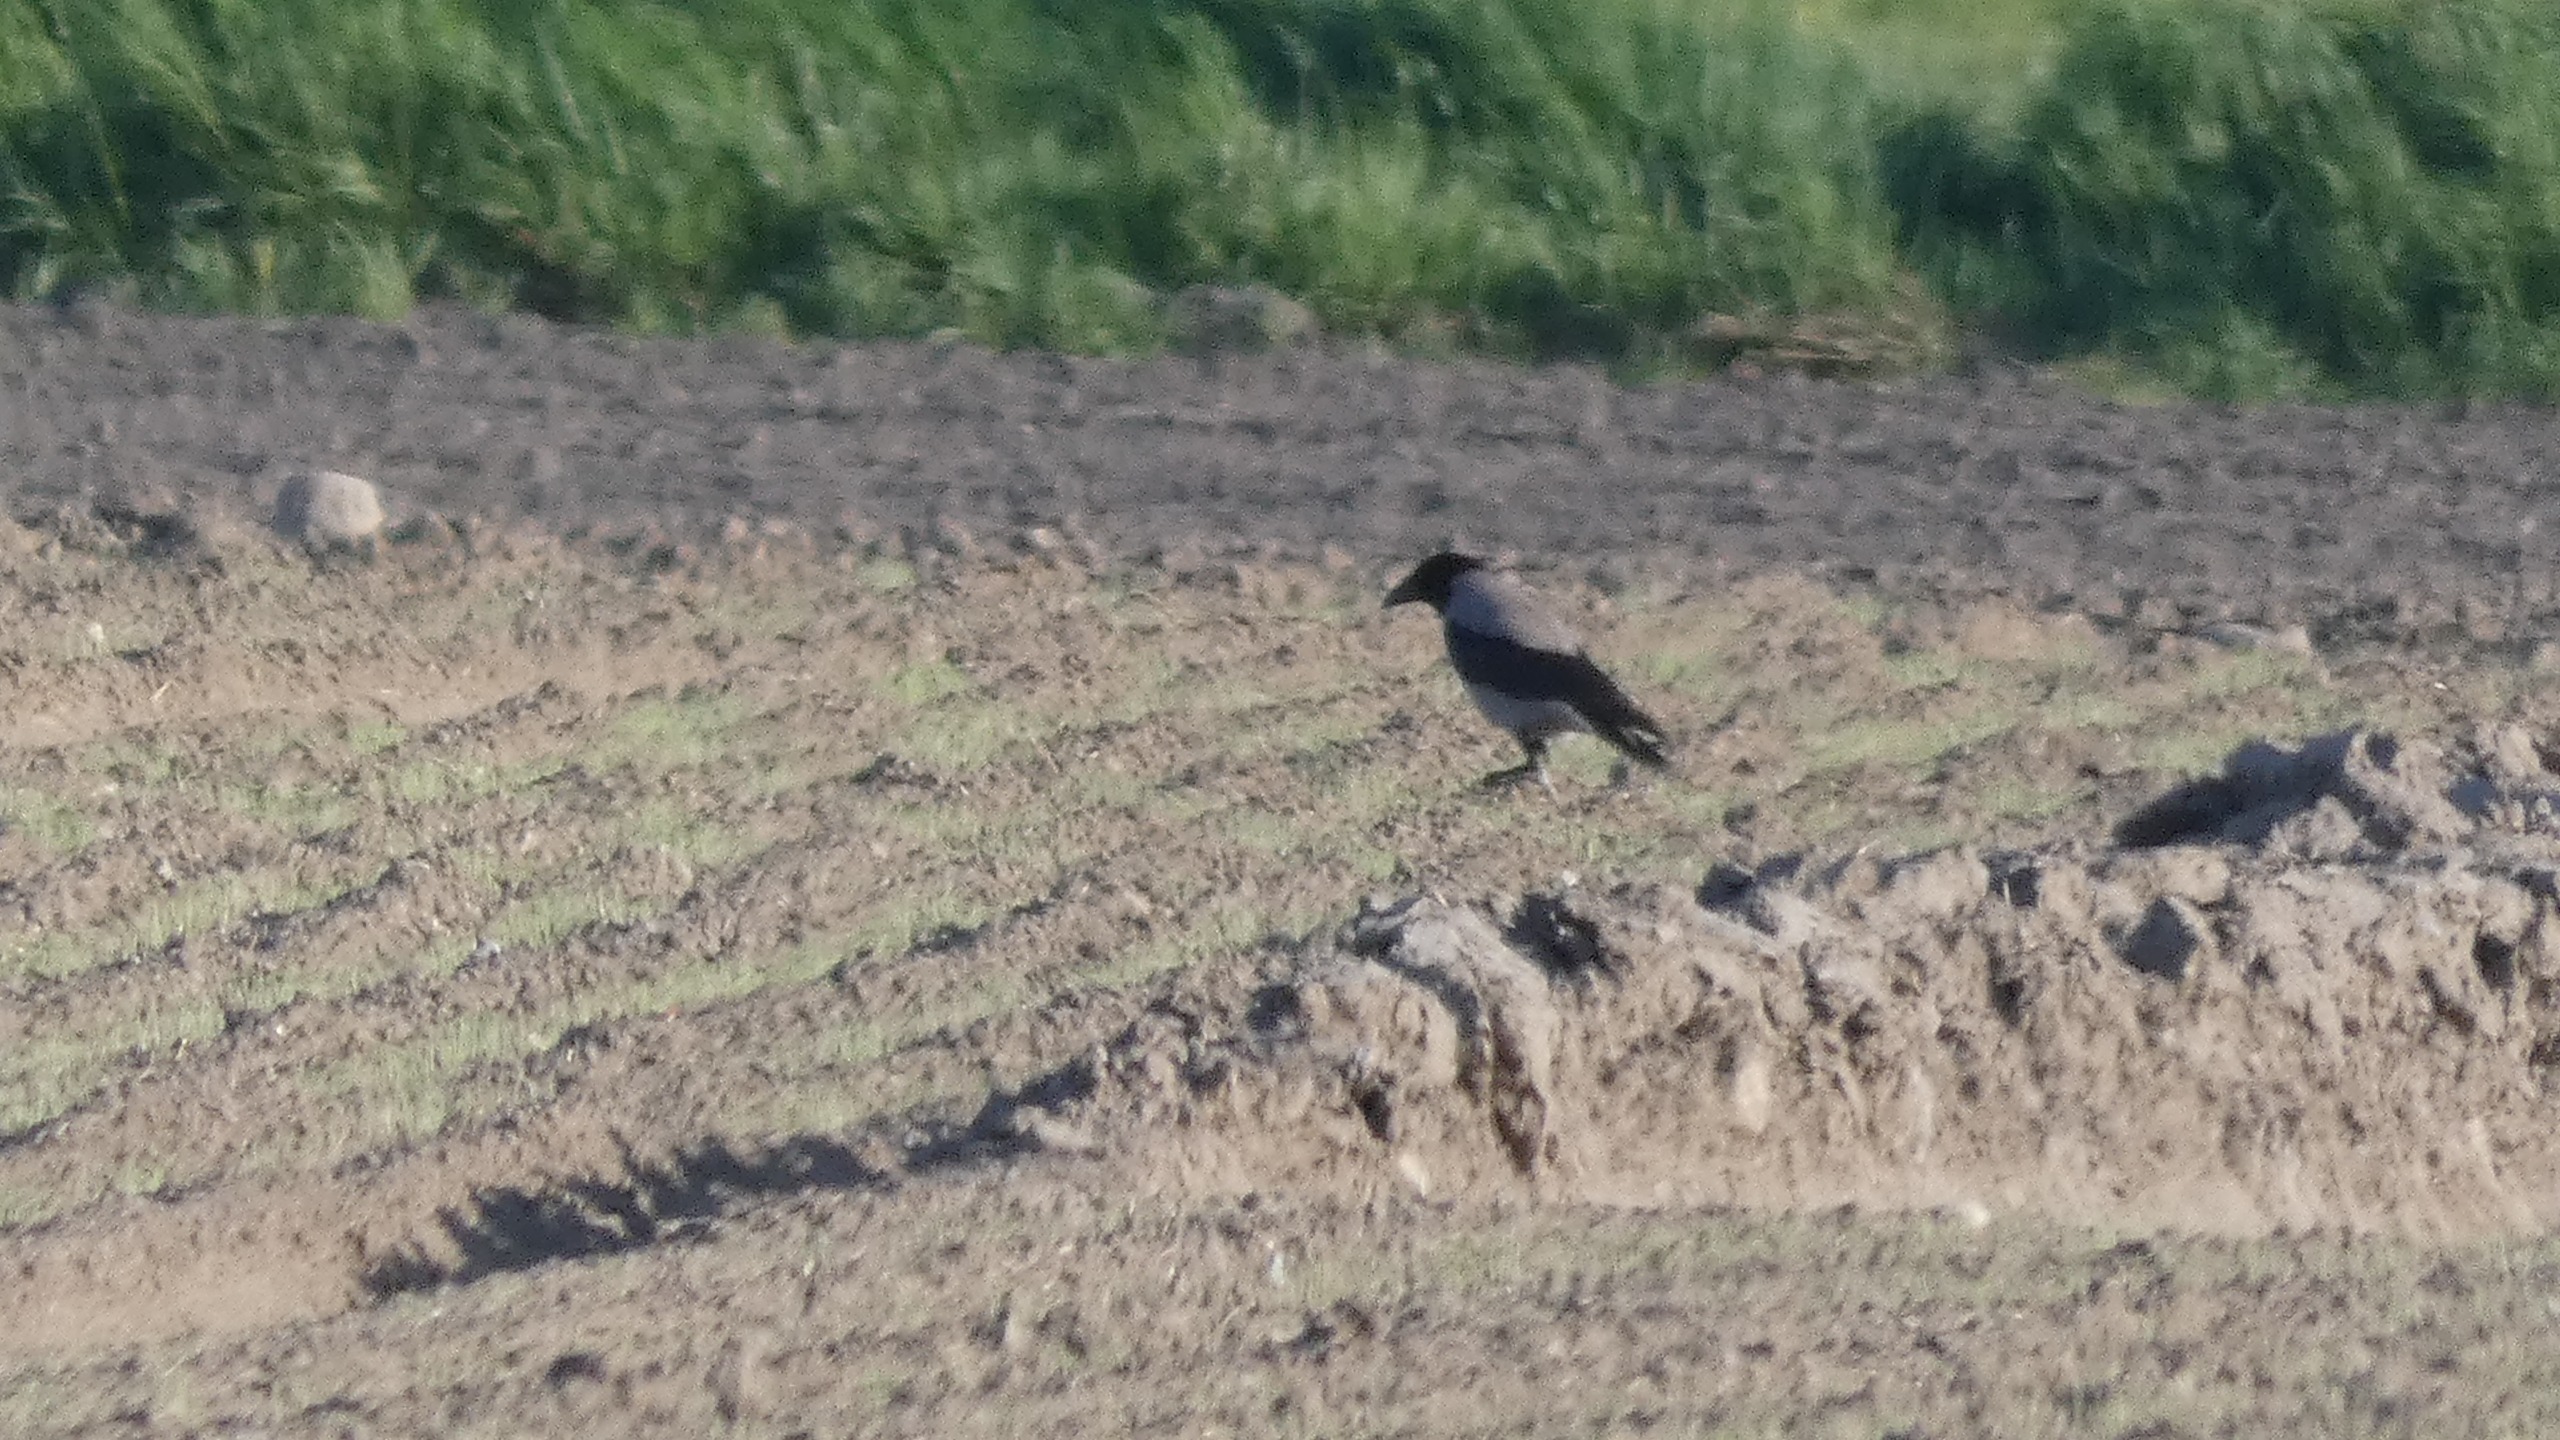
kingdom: Animalia
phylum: Chordata
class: Aves
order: Passeriformes
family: Corvidae
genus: Corvus
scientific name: Corvus cornix
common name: Gråkrage
